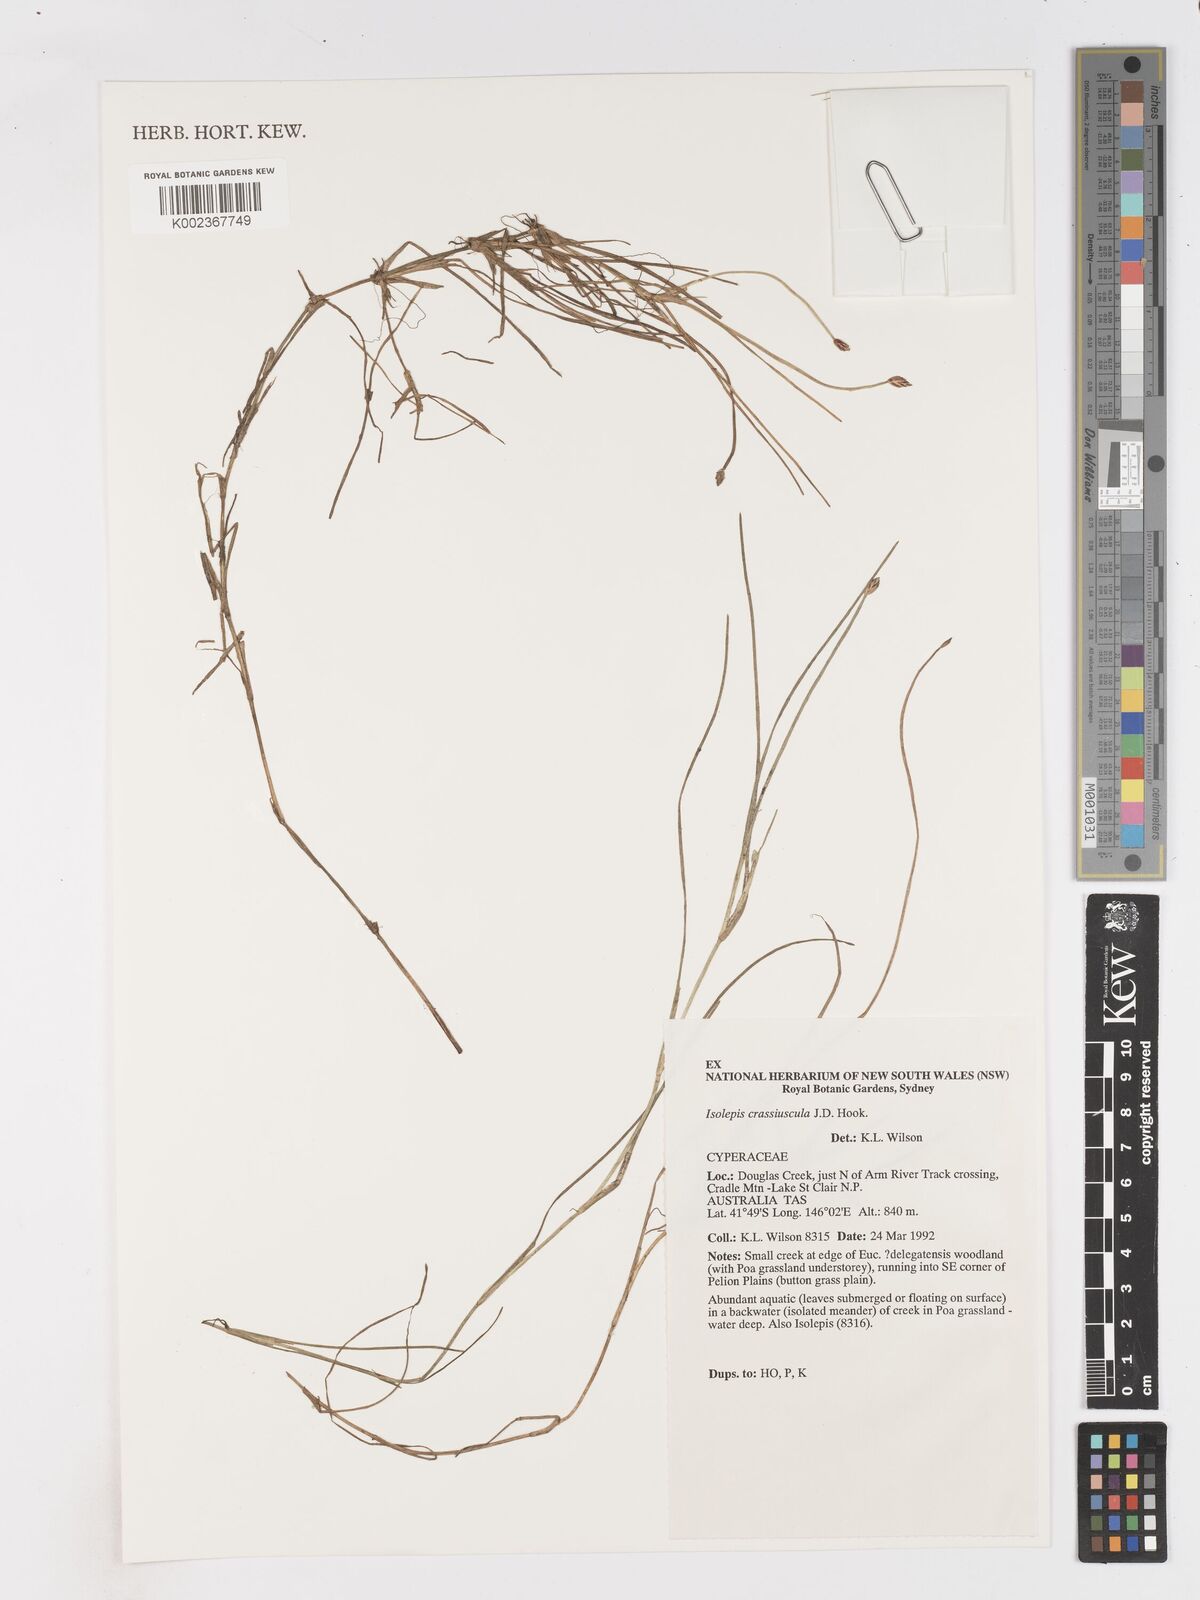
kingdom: Plantae
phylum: Tracheophyta
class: Liliopsida
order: Poales
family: Cyperaceae
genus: Isolepis
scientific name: Isolepis crassiuscula
